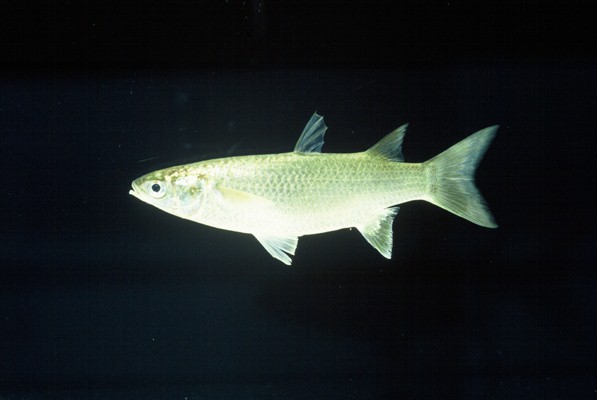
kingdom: Animalia
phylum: Chordata
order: Mugiliformes
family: Mugilidae
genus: Planiliza
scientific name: Planiliza macrolepis
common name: Largescale mullet
